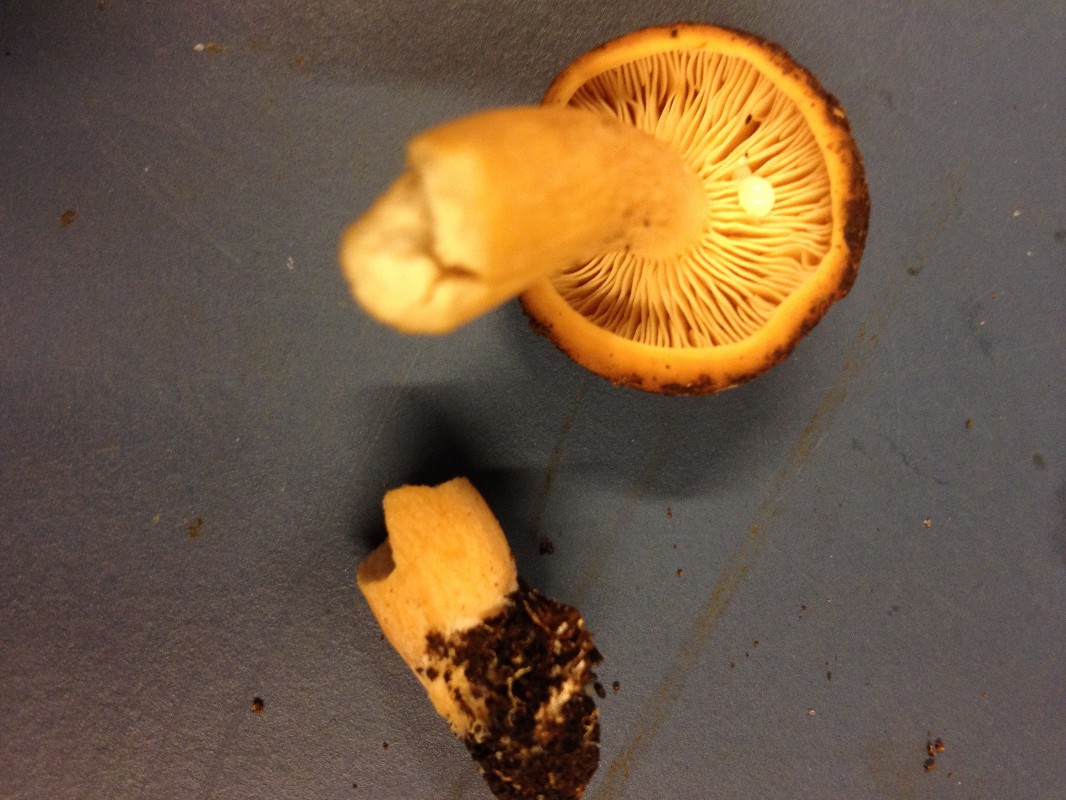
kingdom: Fungi
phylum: Basidiomycota
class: Agaricomycetes
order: Russulales
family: Russulaceae
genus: Lactarius
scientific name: Lactarius rufus
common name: rødbrun mælkehat
